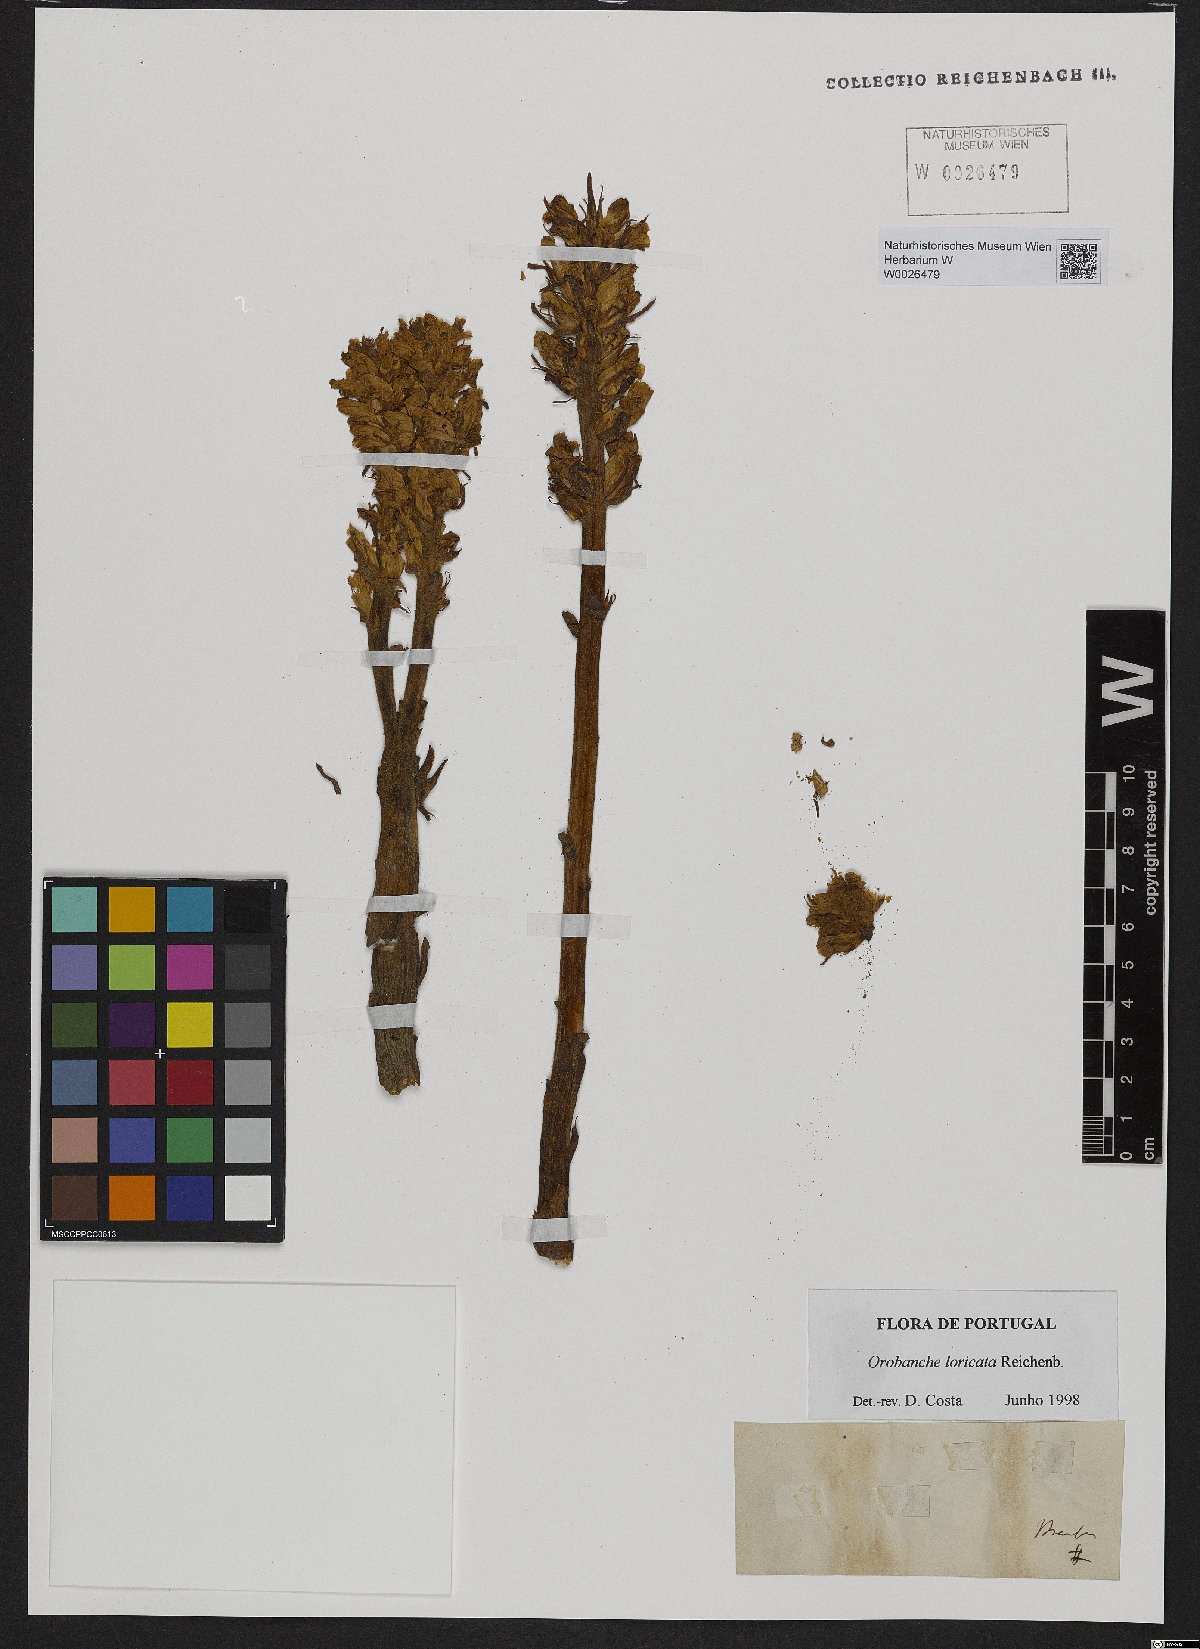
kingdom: Plantae
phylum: Tracheophyta
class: Magnoliopsida
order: Lamiales
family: Orobanchaceae
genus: Orobanche
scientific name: Orobanche artemisiae-campestris
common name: Oxtongue broomrape
